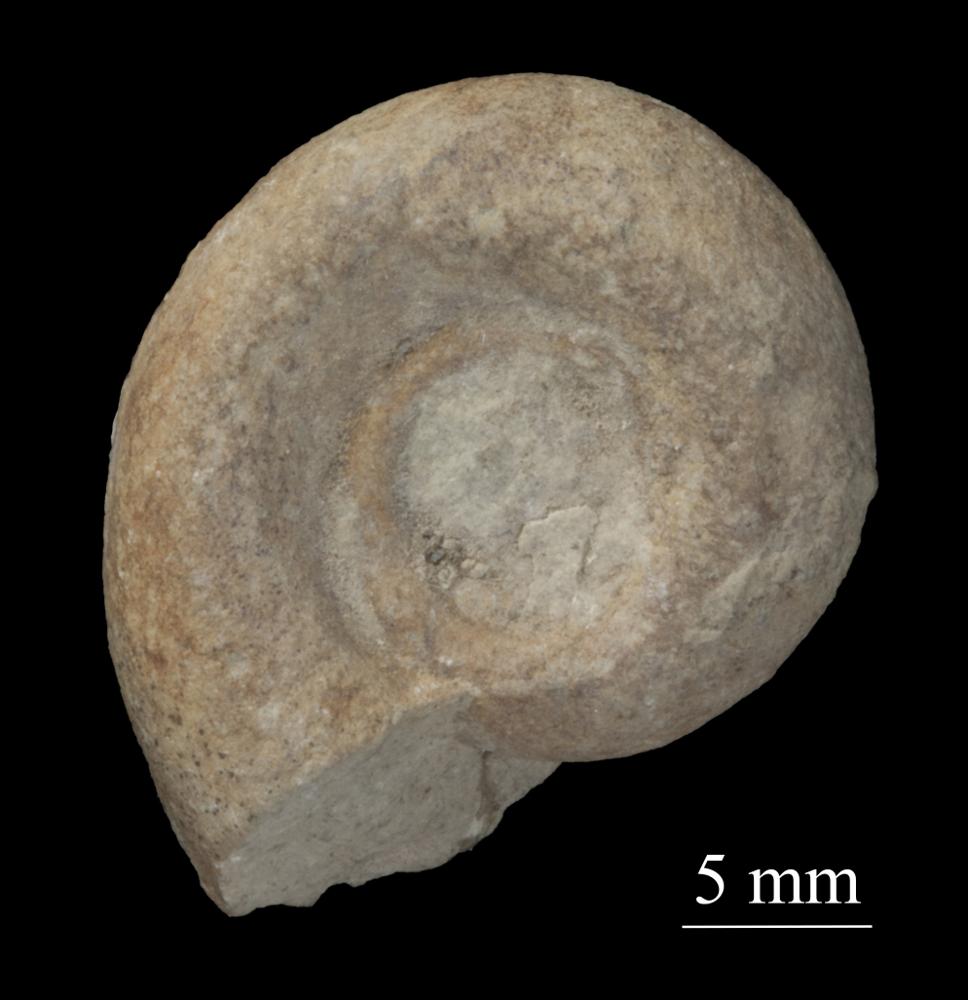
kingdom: Animalia
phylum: Mollusca
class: Gastropoda
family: Bellerophontidae
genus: Bellerophon
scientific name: Bellerophon contortus
